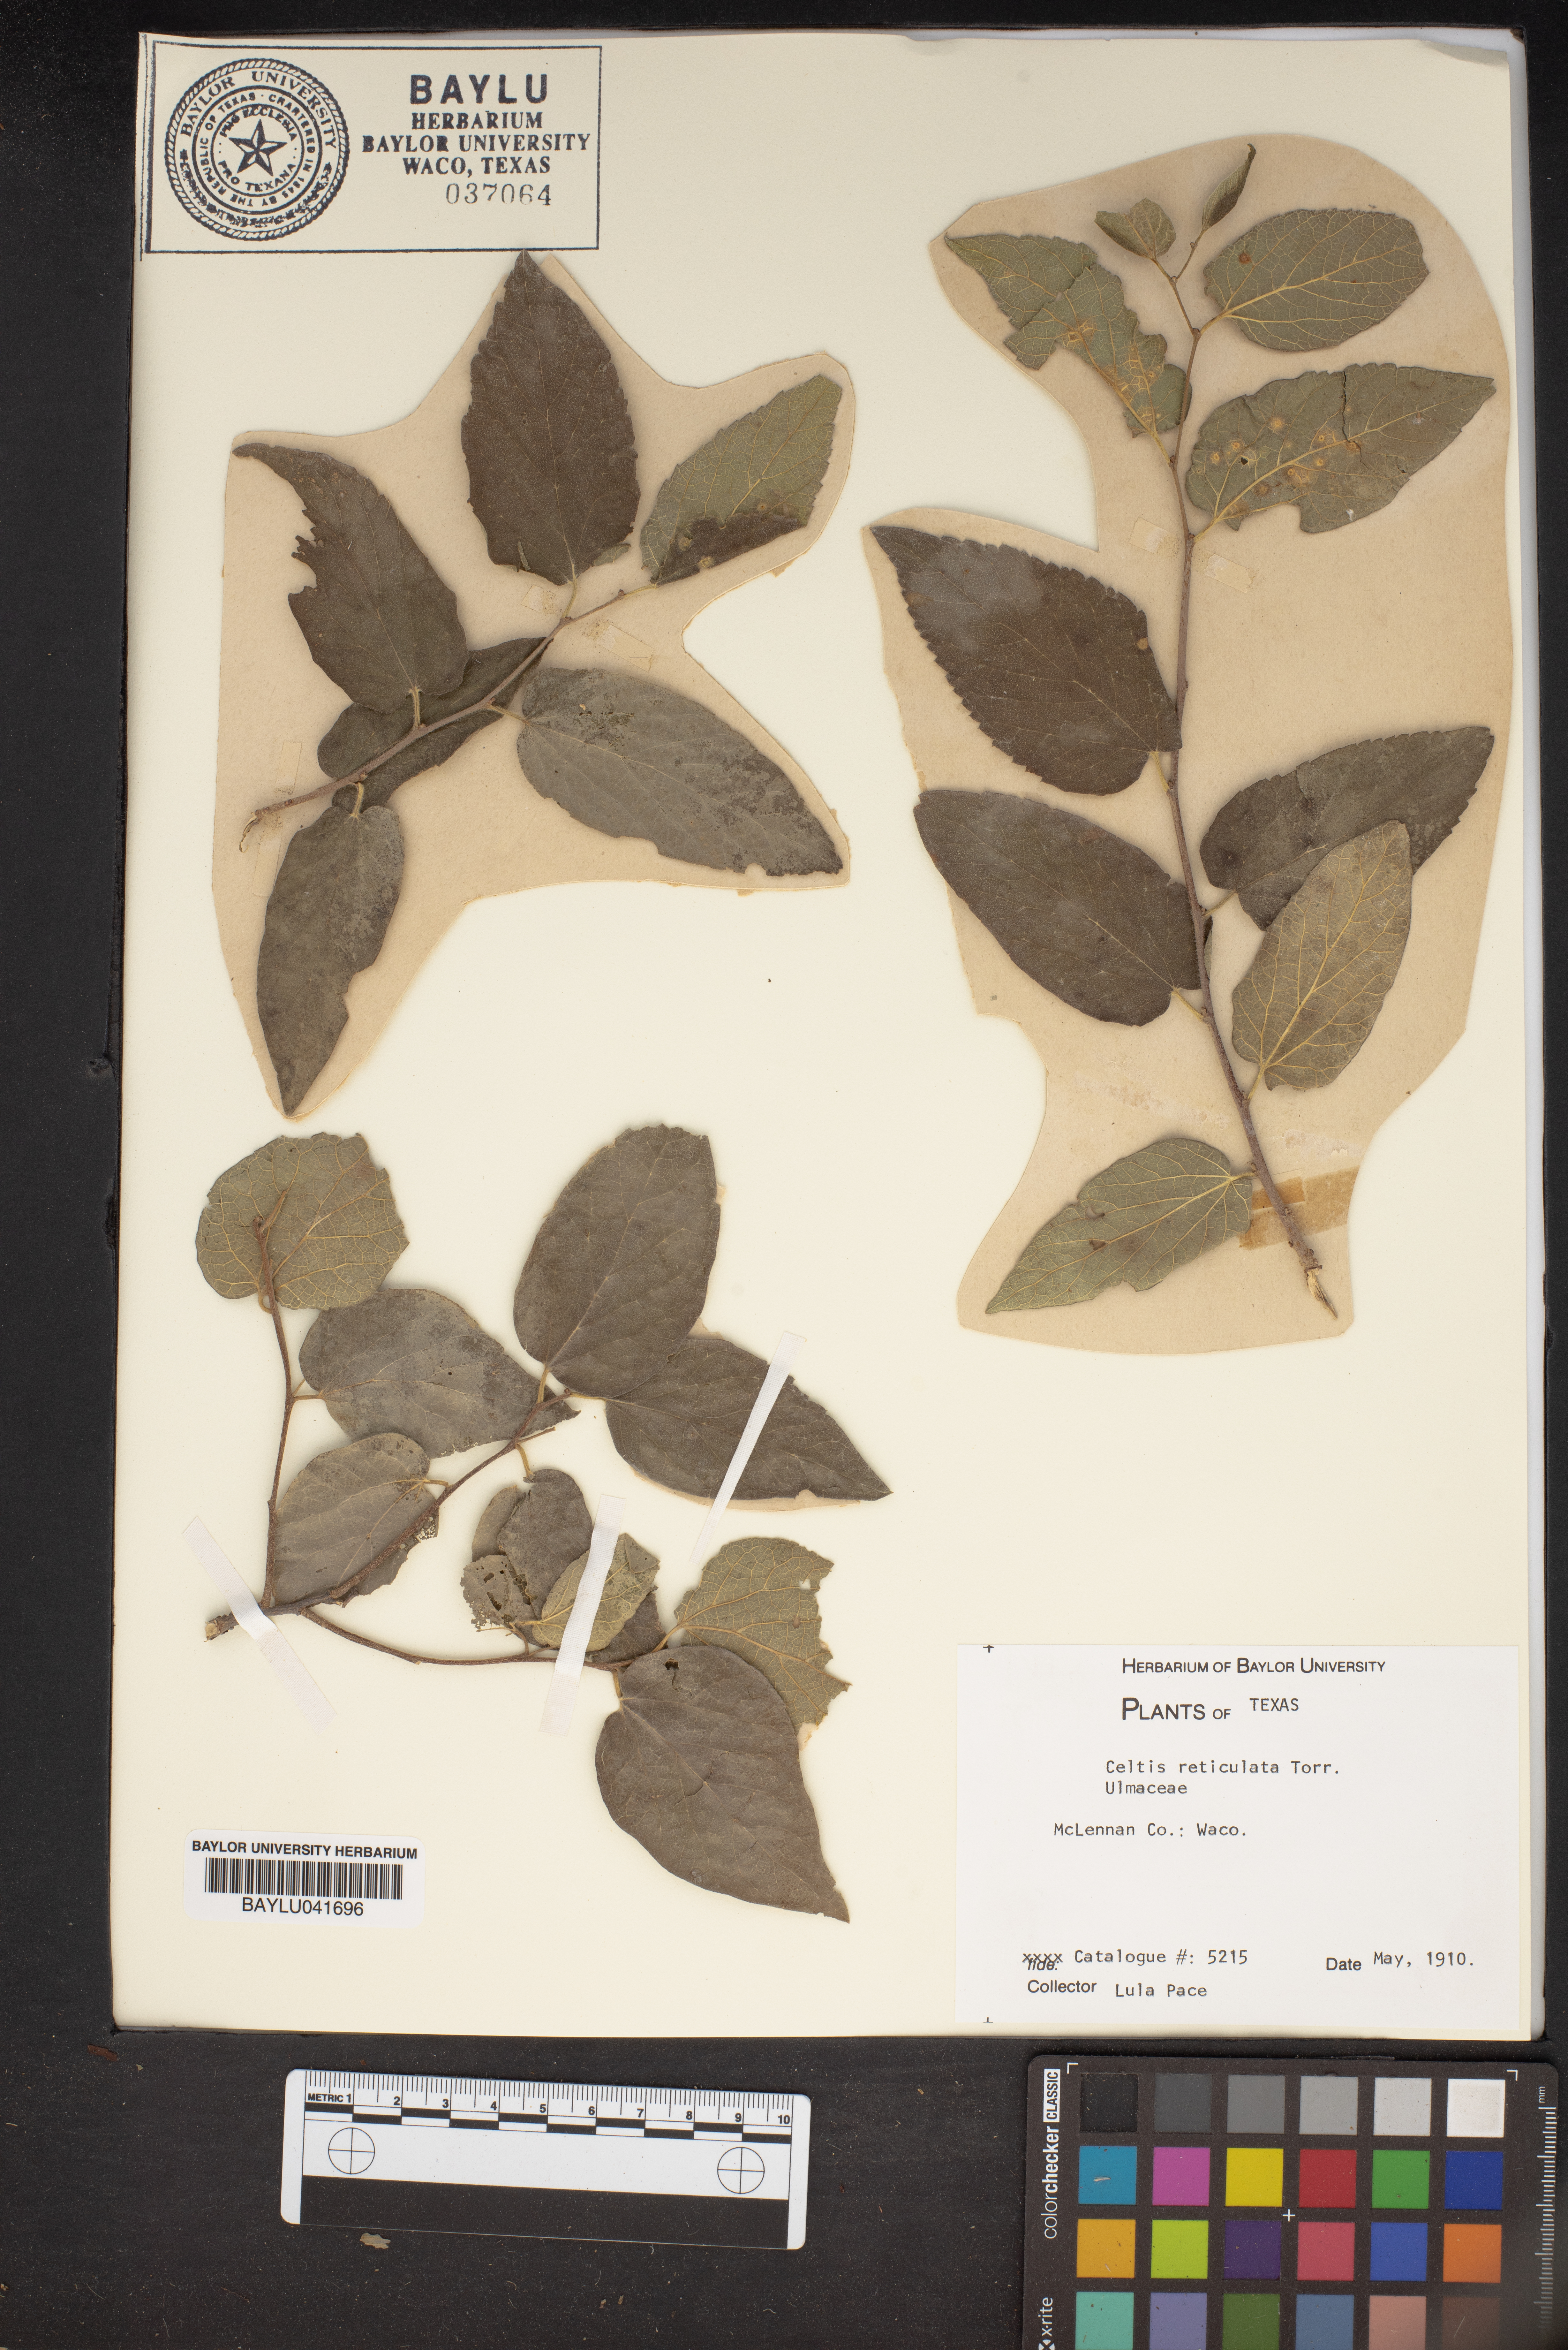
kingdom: Plantae
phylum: Tracheophyta
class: Magnoliopsida
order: Rosales
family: Cannabaceae
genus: Celtis
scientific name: Celtis reticulata
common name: Netleaf hackberry
